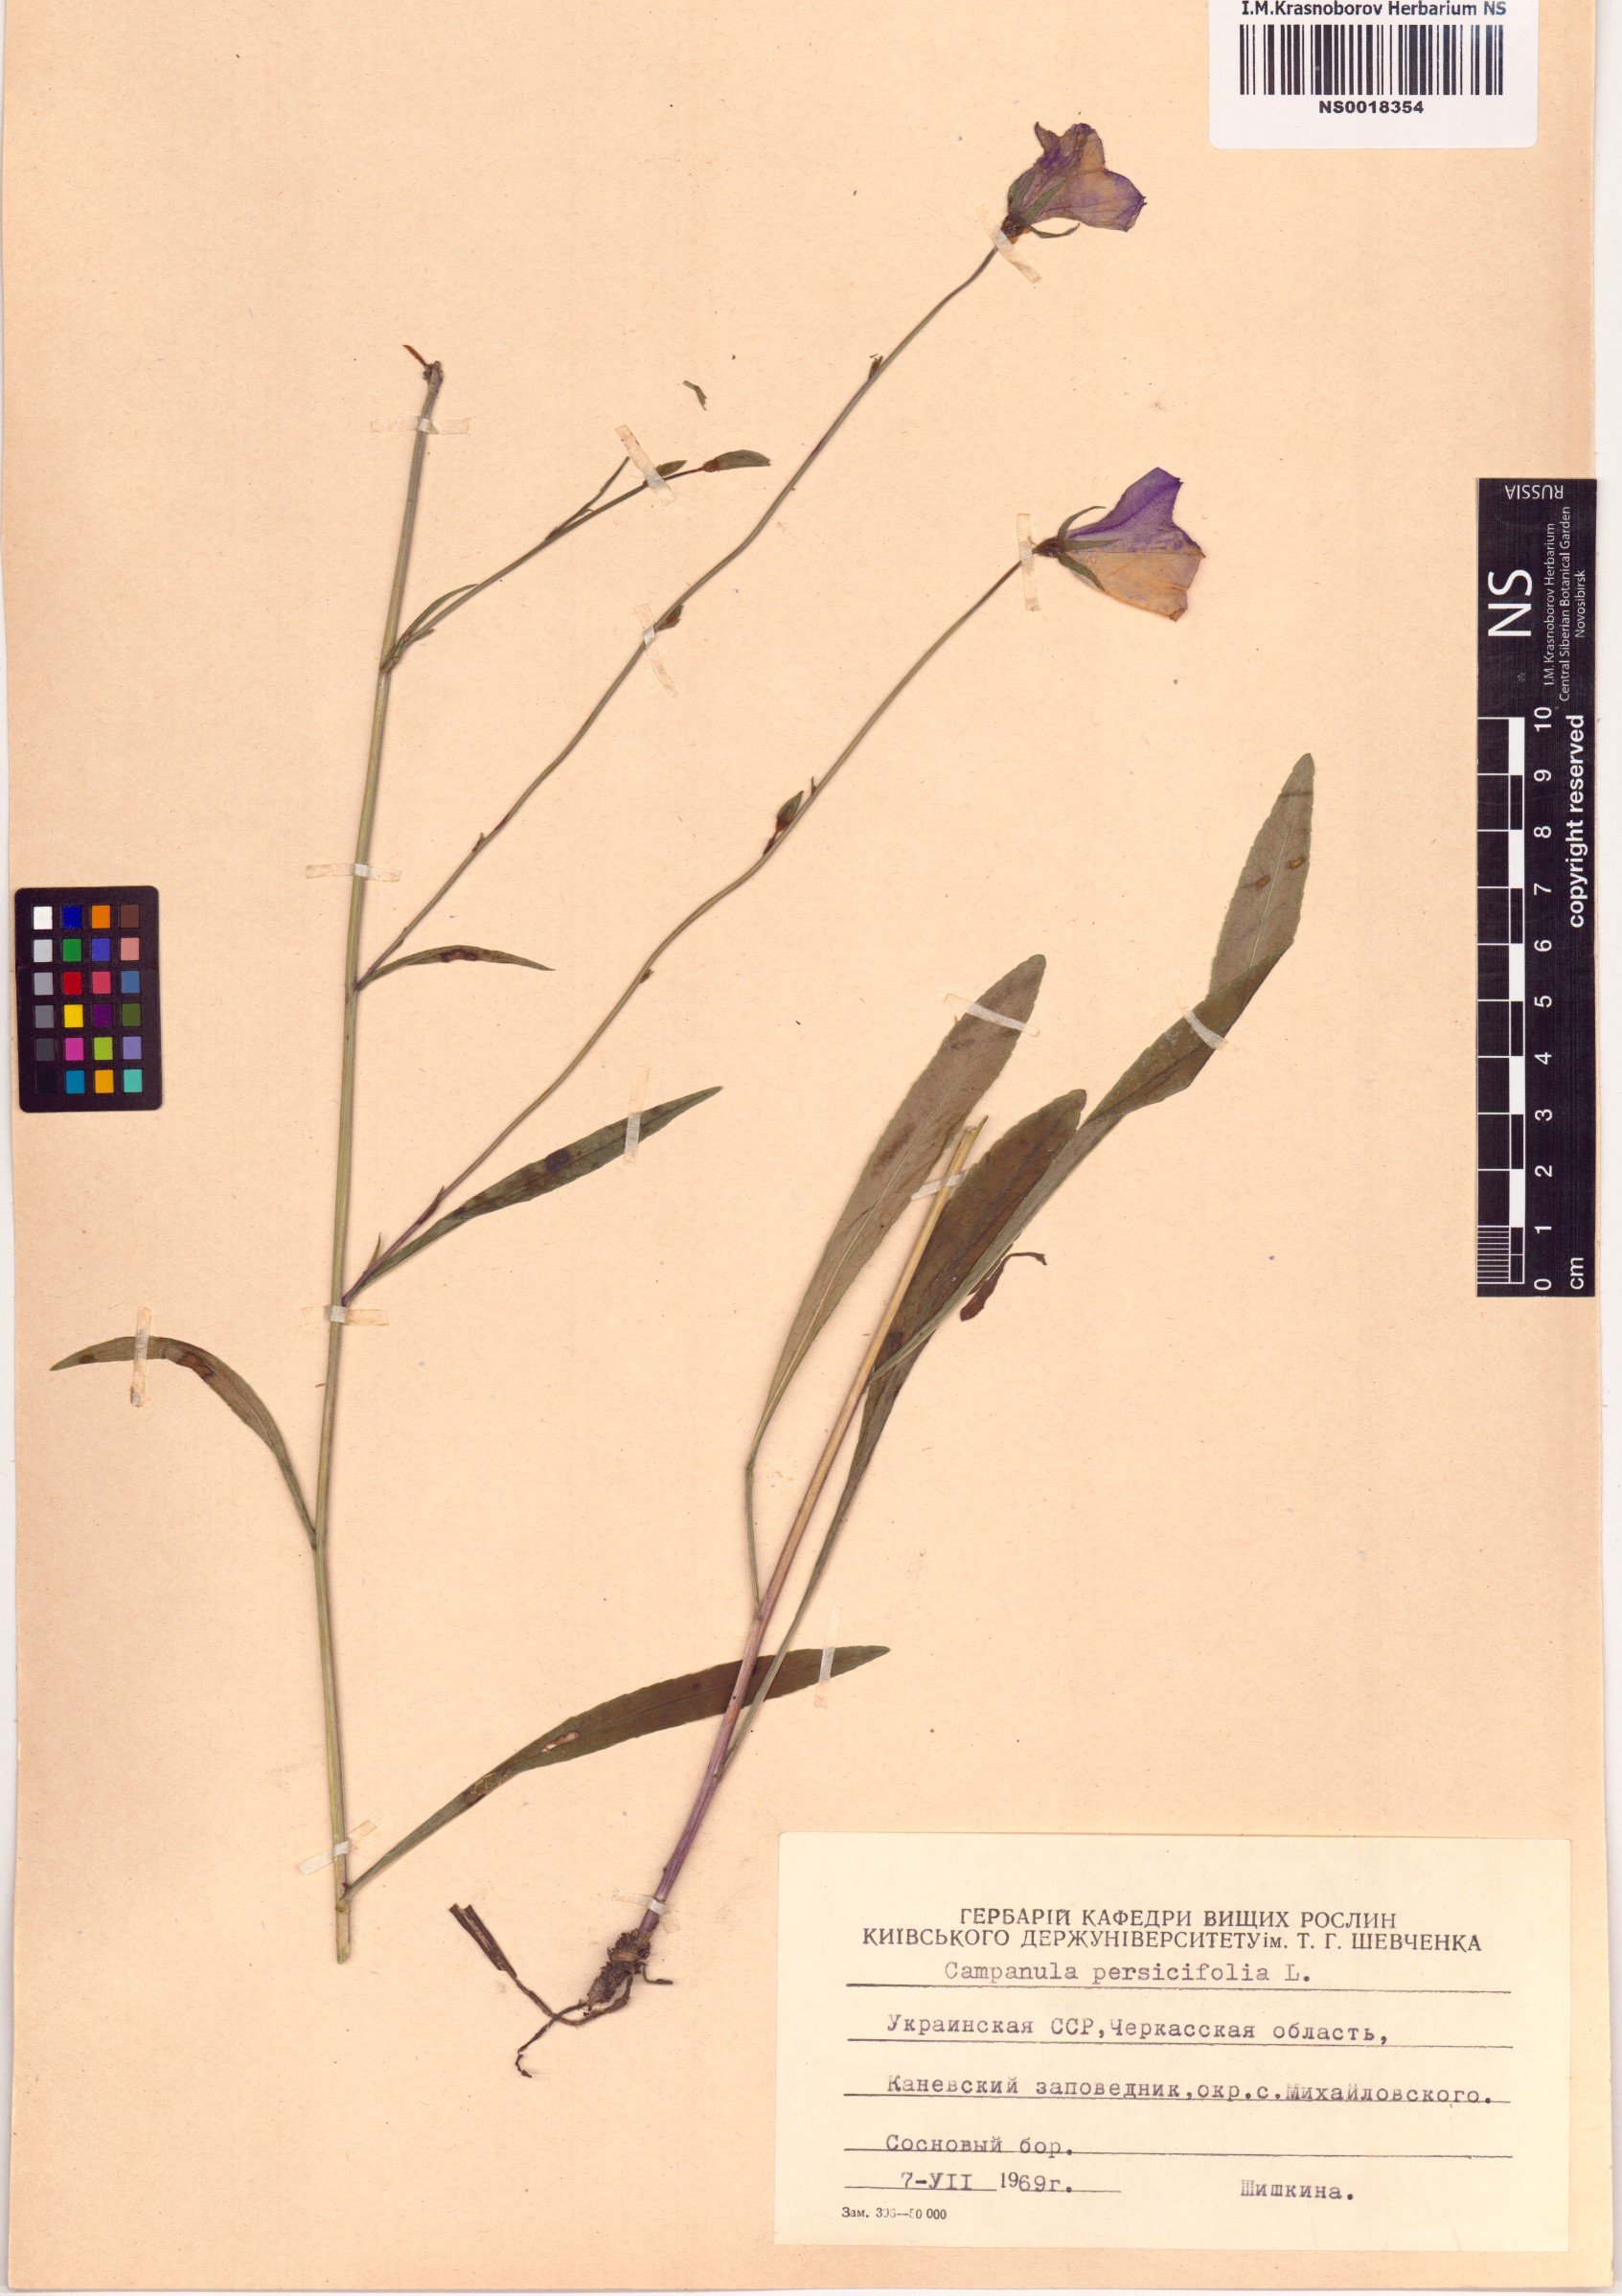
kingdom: Plantae
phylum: Tracheophyta
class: Magnoliopsida
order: Asterales
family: Campanulaceae
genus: Campanula
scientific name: Campanula persicifolia
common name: Peach-leaved bellflower
